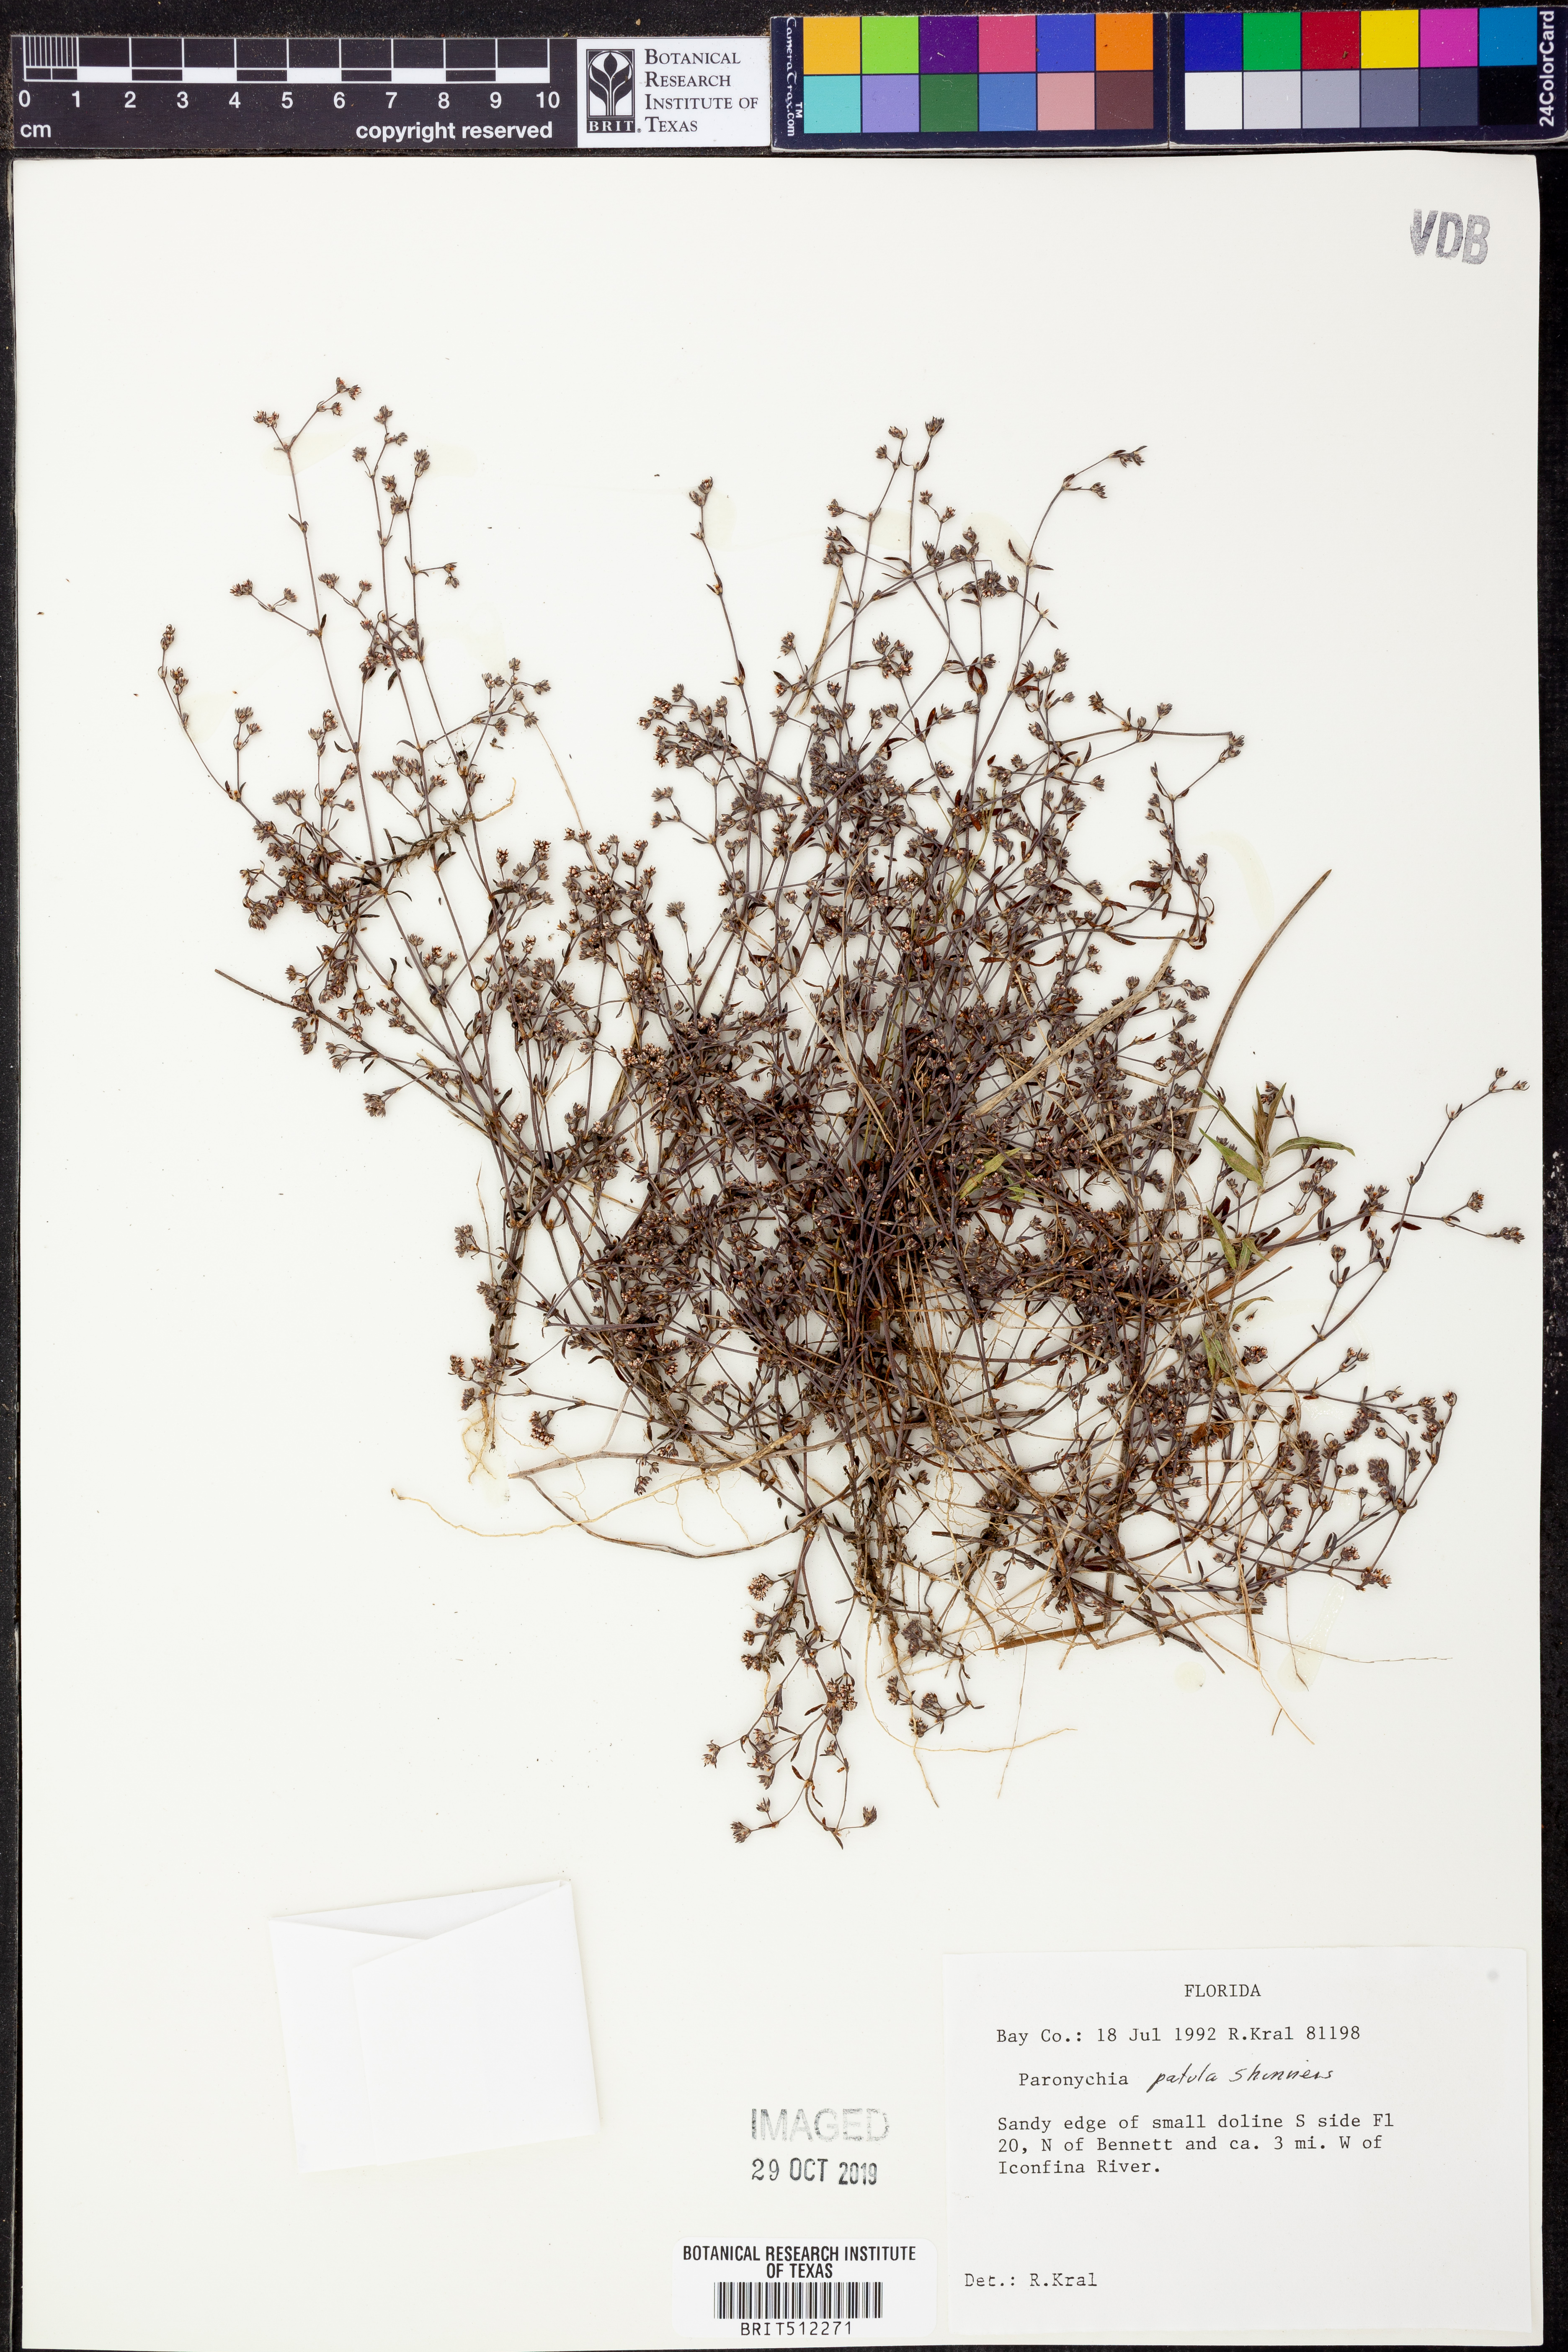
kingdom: Plantae
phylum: Tracheophyta
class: Magnoliopsida
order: Caryophyllales
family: Caryophyllaceae
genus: Paronychia
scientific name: Paronychia patula
